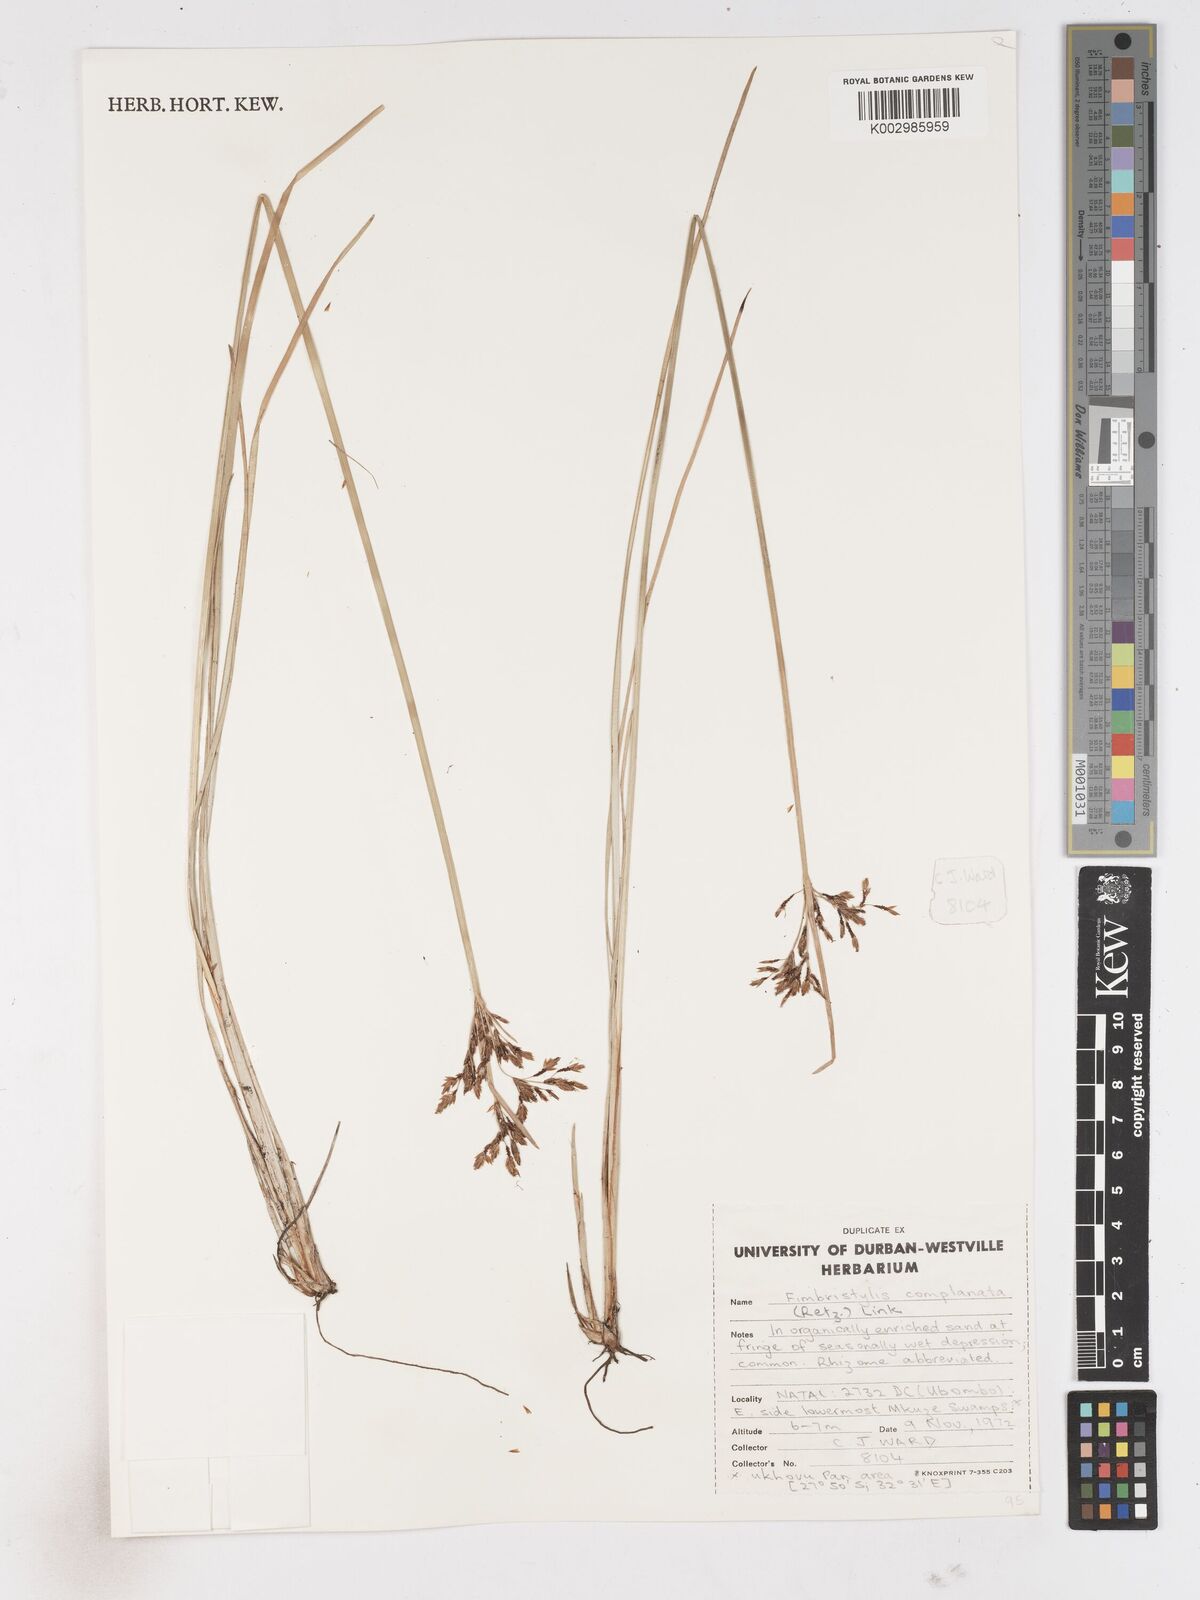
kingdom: Plantae
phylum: Tracheophyta
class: Liliopsida
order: Poales
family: Cyperaceae
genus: Fimbristylis
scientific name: Fimbristylis complanata
